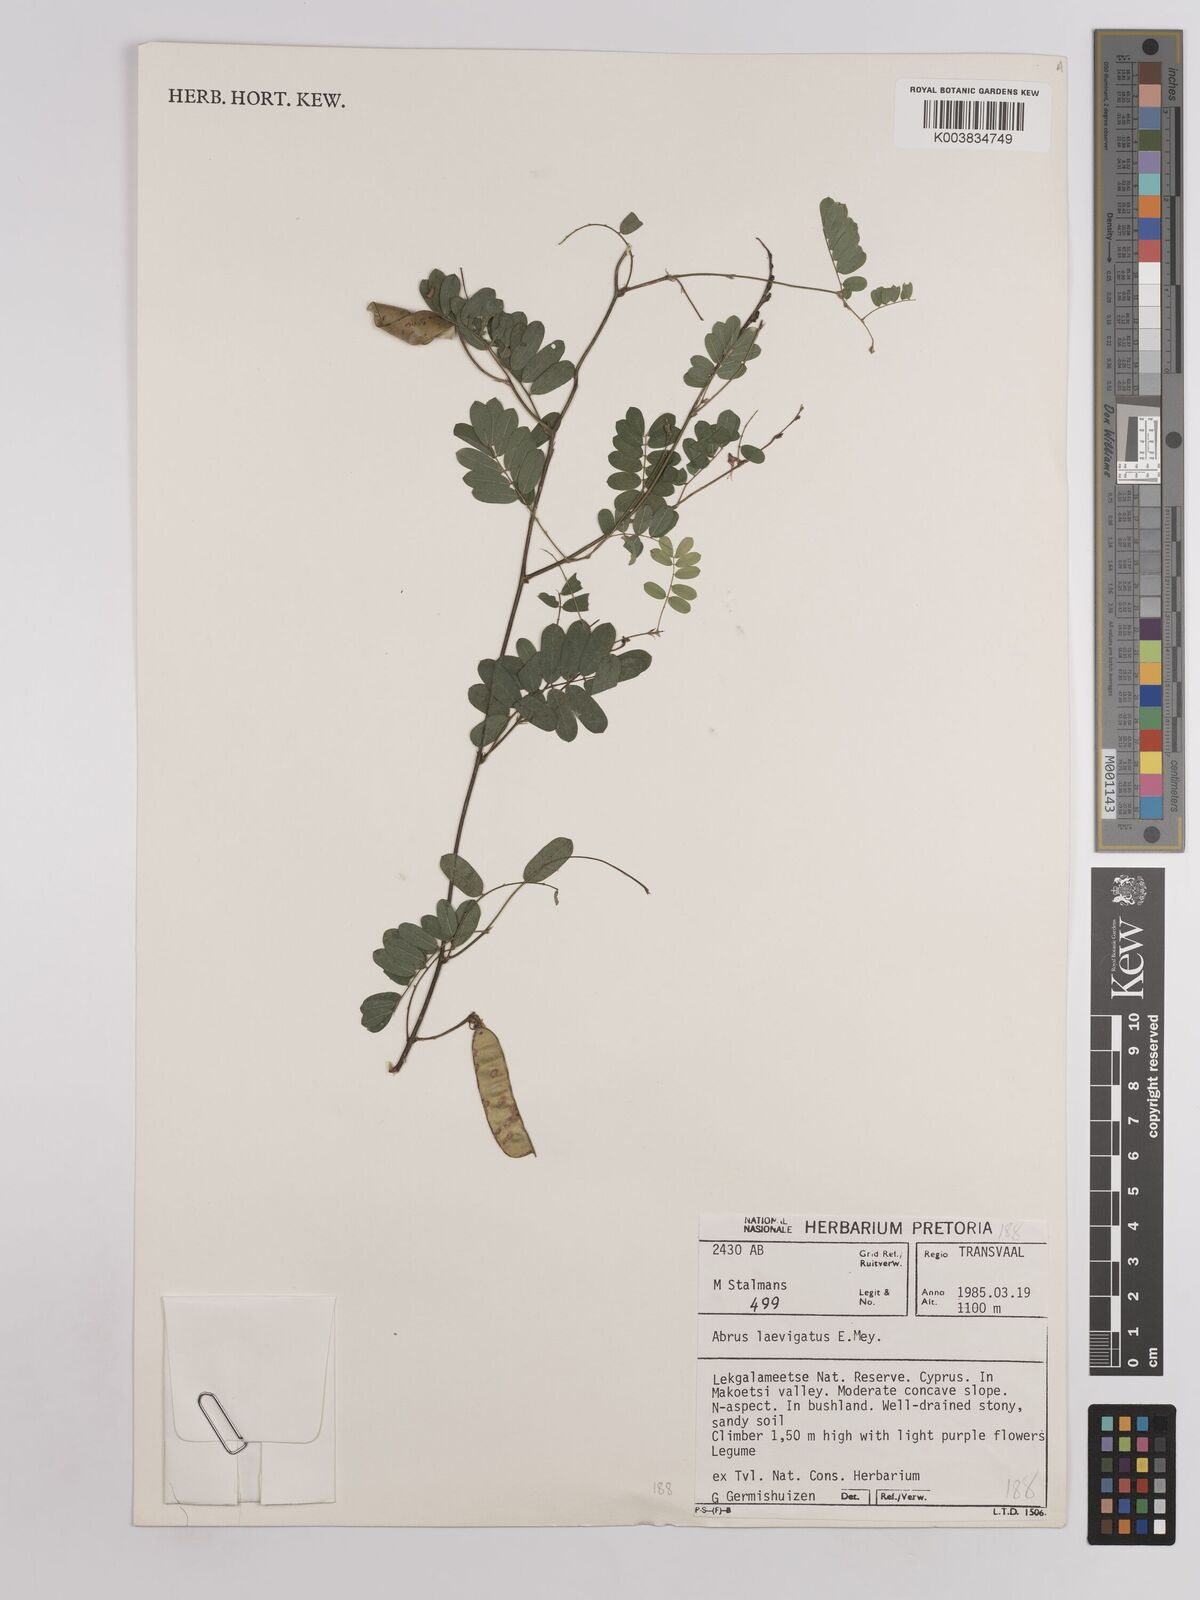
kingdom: Plantae
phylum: Tracheophyta
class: Magnoliopsida
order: Fabales
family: Fabaceae
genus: Abrus
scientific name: Abrus laevigatus
